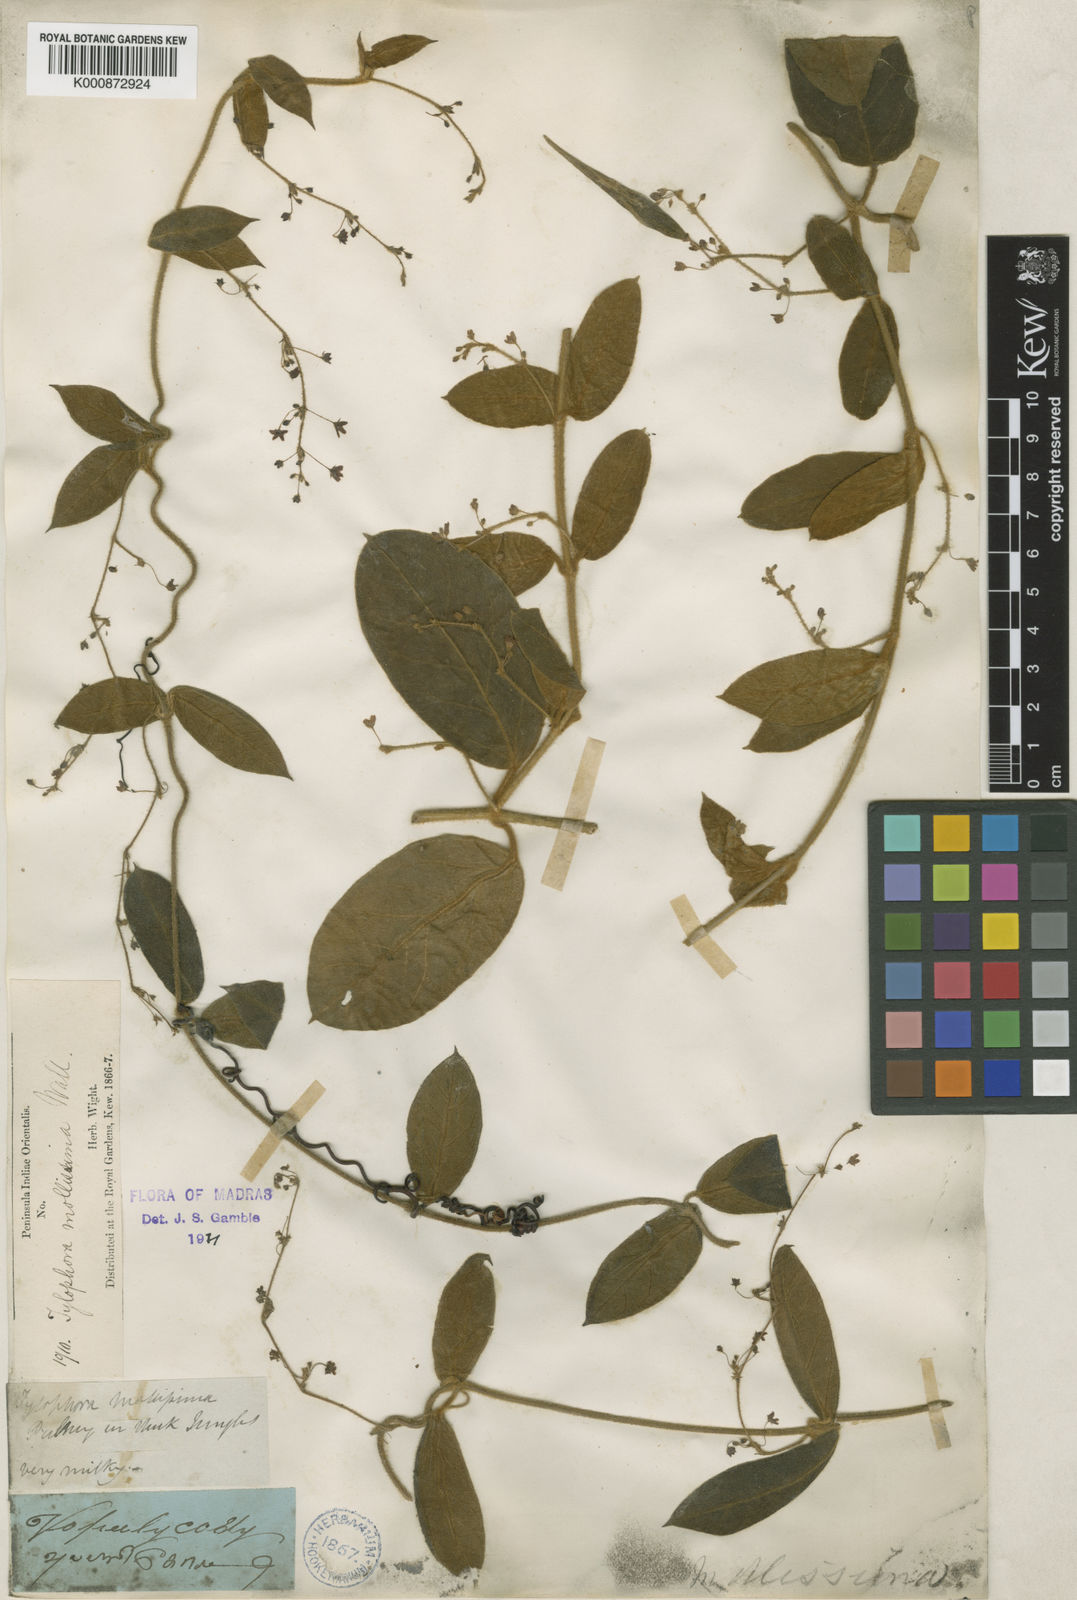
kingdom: Plantae
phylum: Tracheophyta
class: Magnoliopsida
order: Gentianales
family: Apocynaceae
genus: Vincetoxicum
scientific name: Vincetoxicum hirsutum
